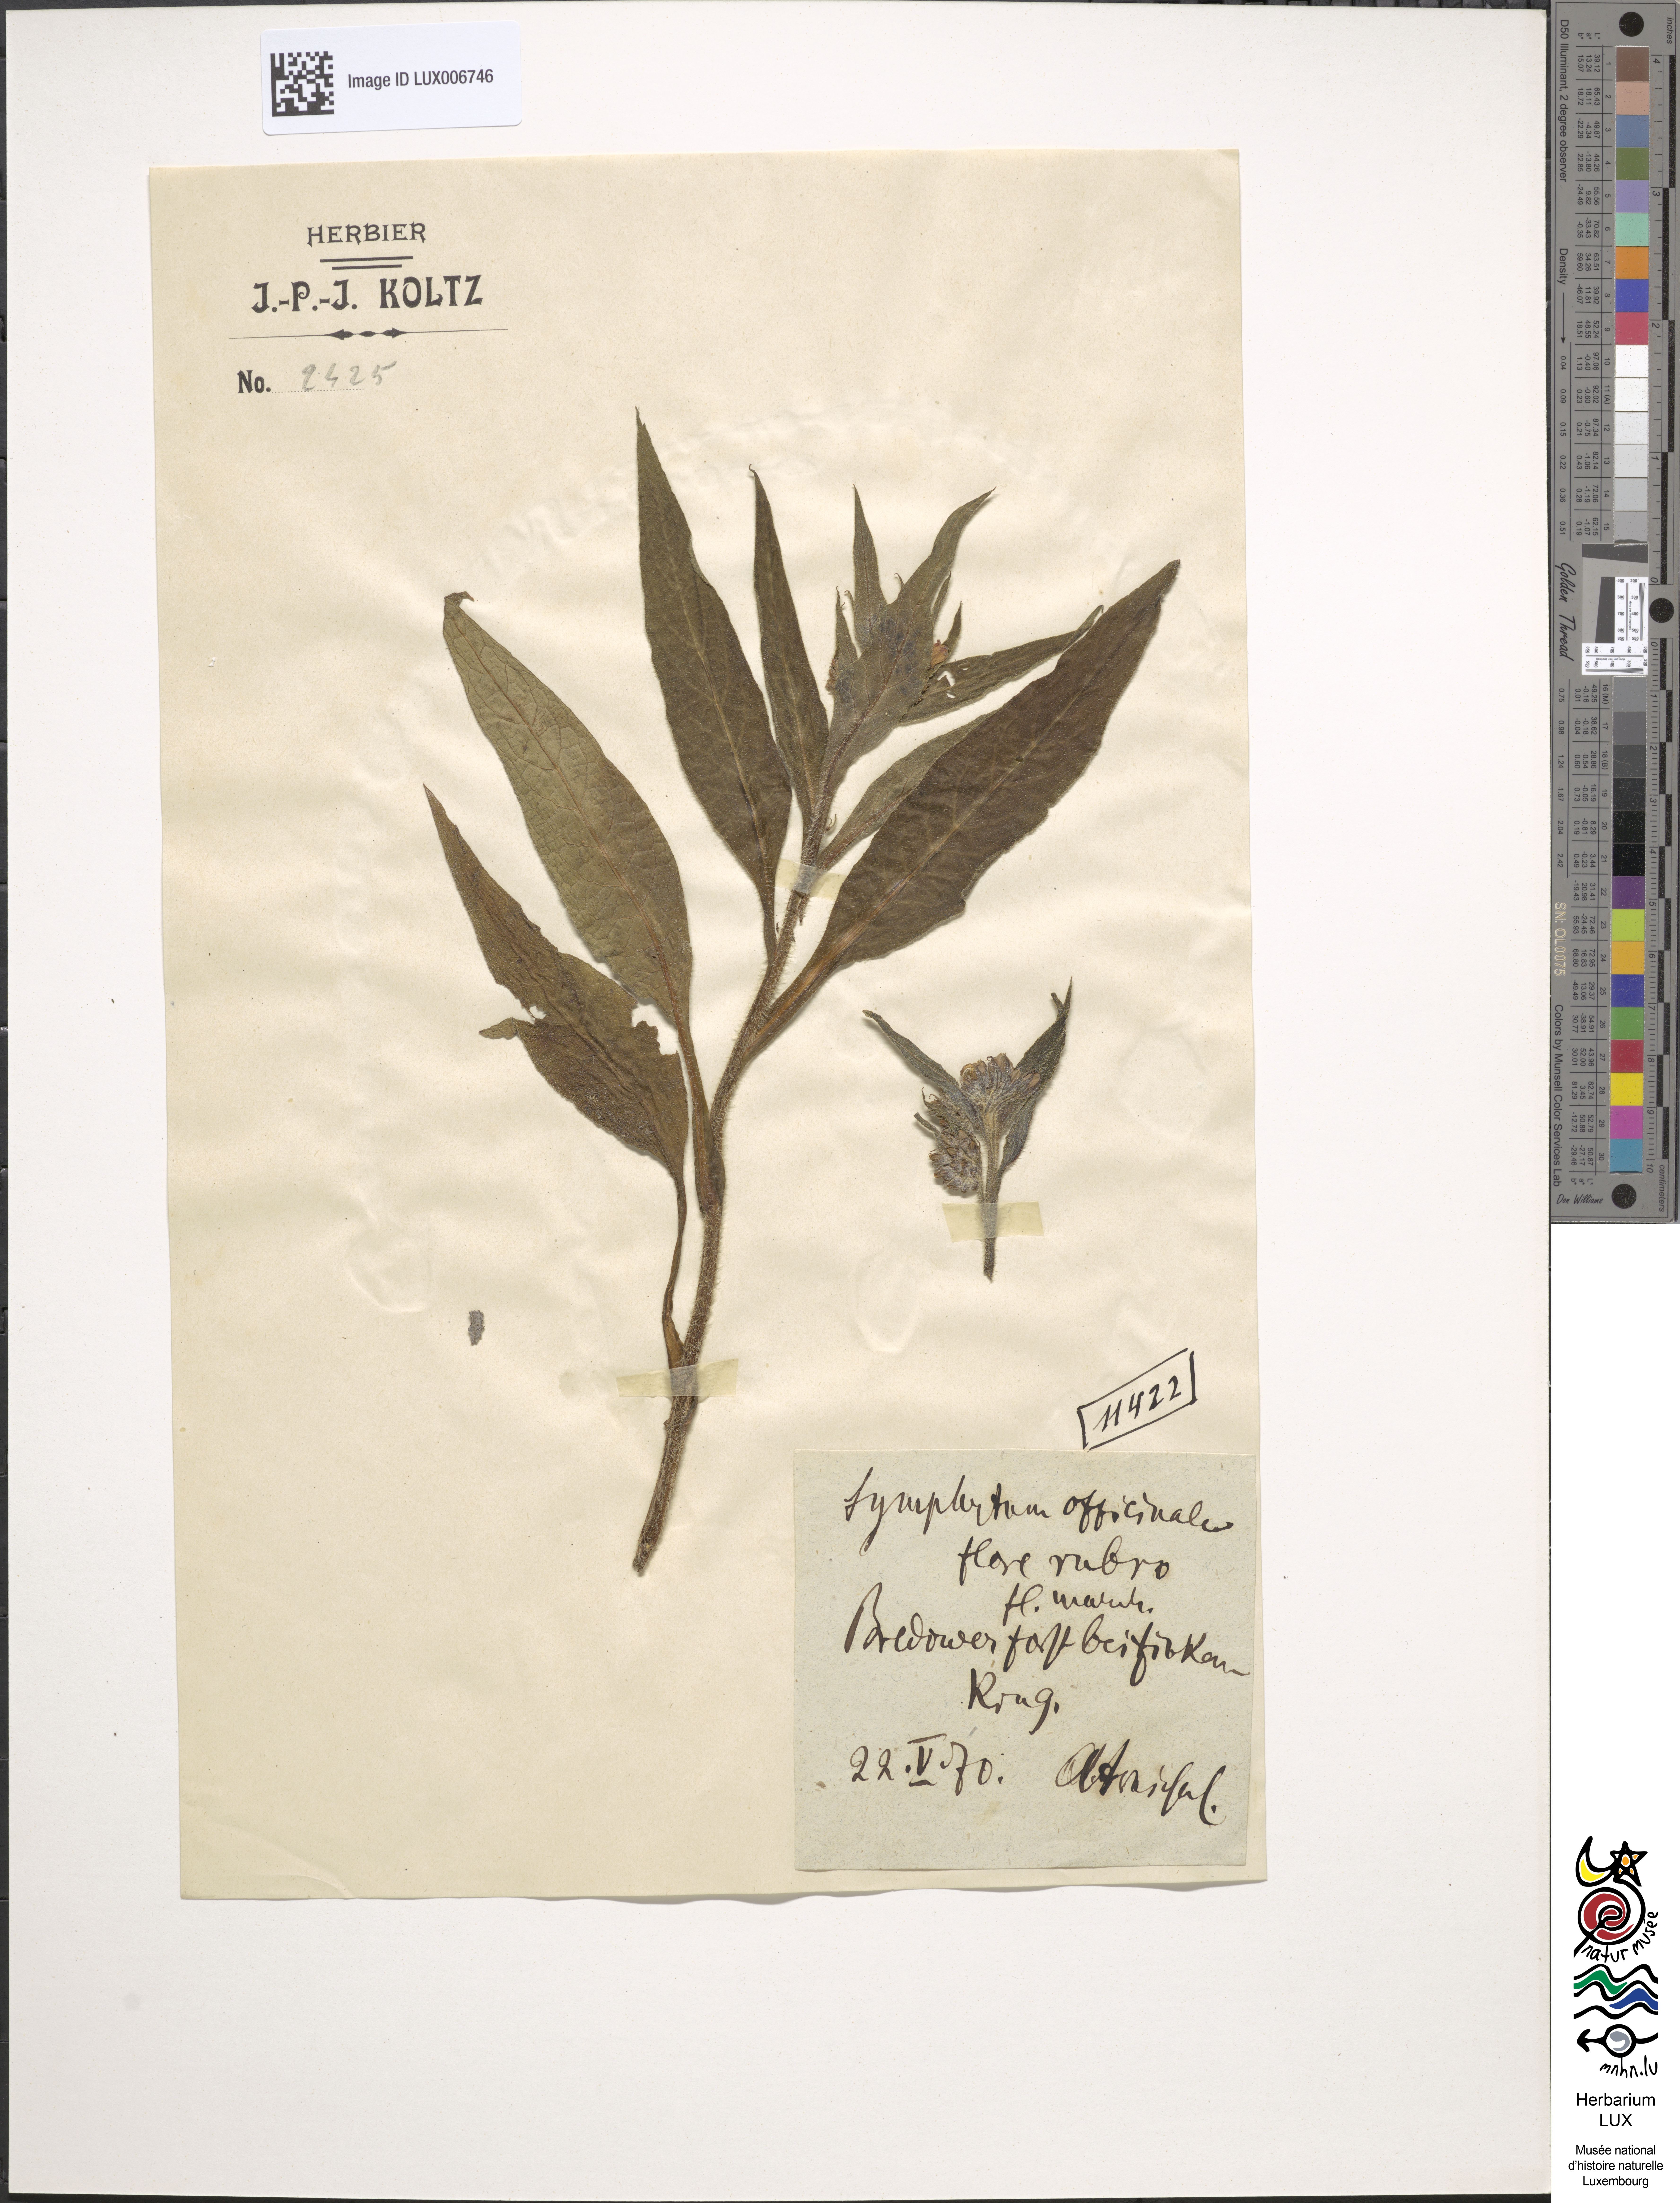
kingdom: Plantae
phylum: Tracheophyta
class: Magnoliopsida
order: Boraginales
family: Boraginaceae
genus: Symphytum
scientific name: Symphytum officinale
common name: Common comfrey
